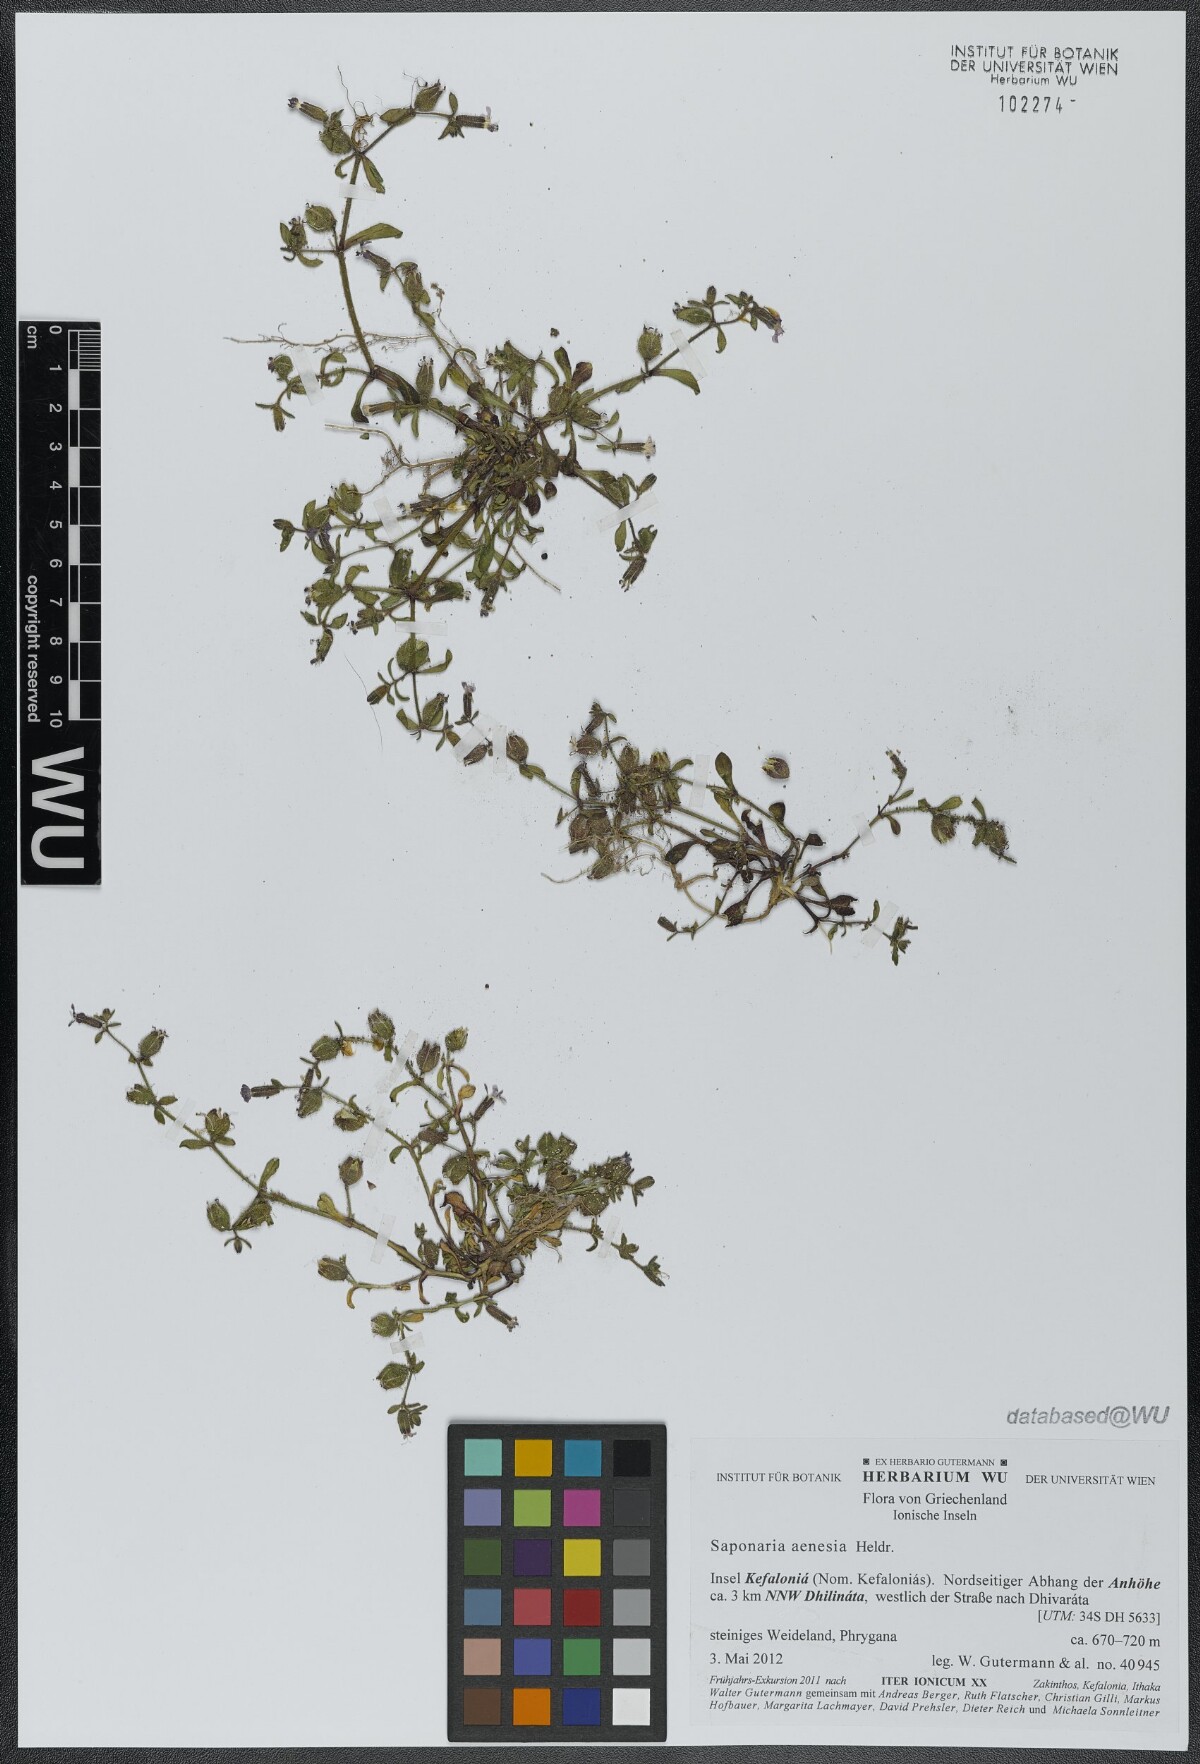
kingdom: Plantae
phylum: Tracheophyta
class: Magnoliopsida
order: Caryophyllales
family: Caryophyllaceae
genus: Saponaria
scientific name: Saponaria aenesia
